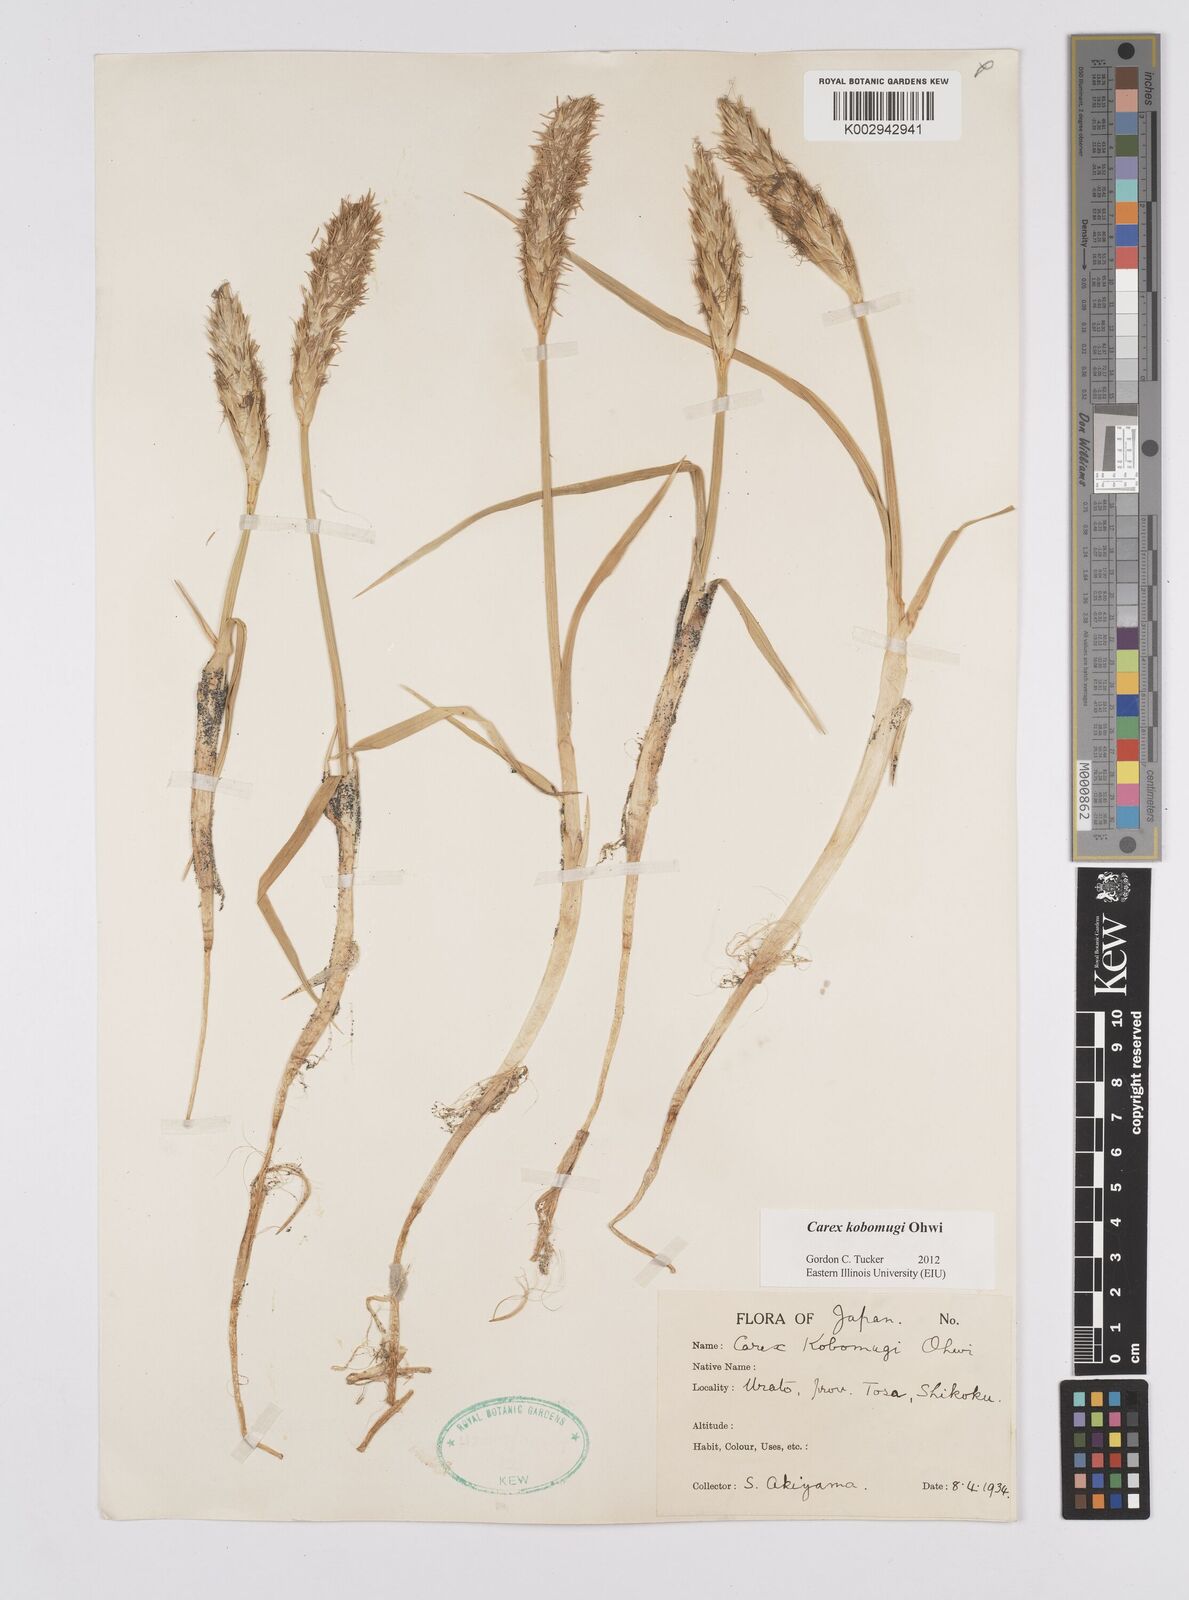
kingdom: Plantae
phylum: Tracheophyta
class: Liliopsida
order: Poales
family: Cyperaceae
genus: Carex
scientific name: Carex kobomugi
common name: Japanese sedge
